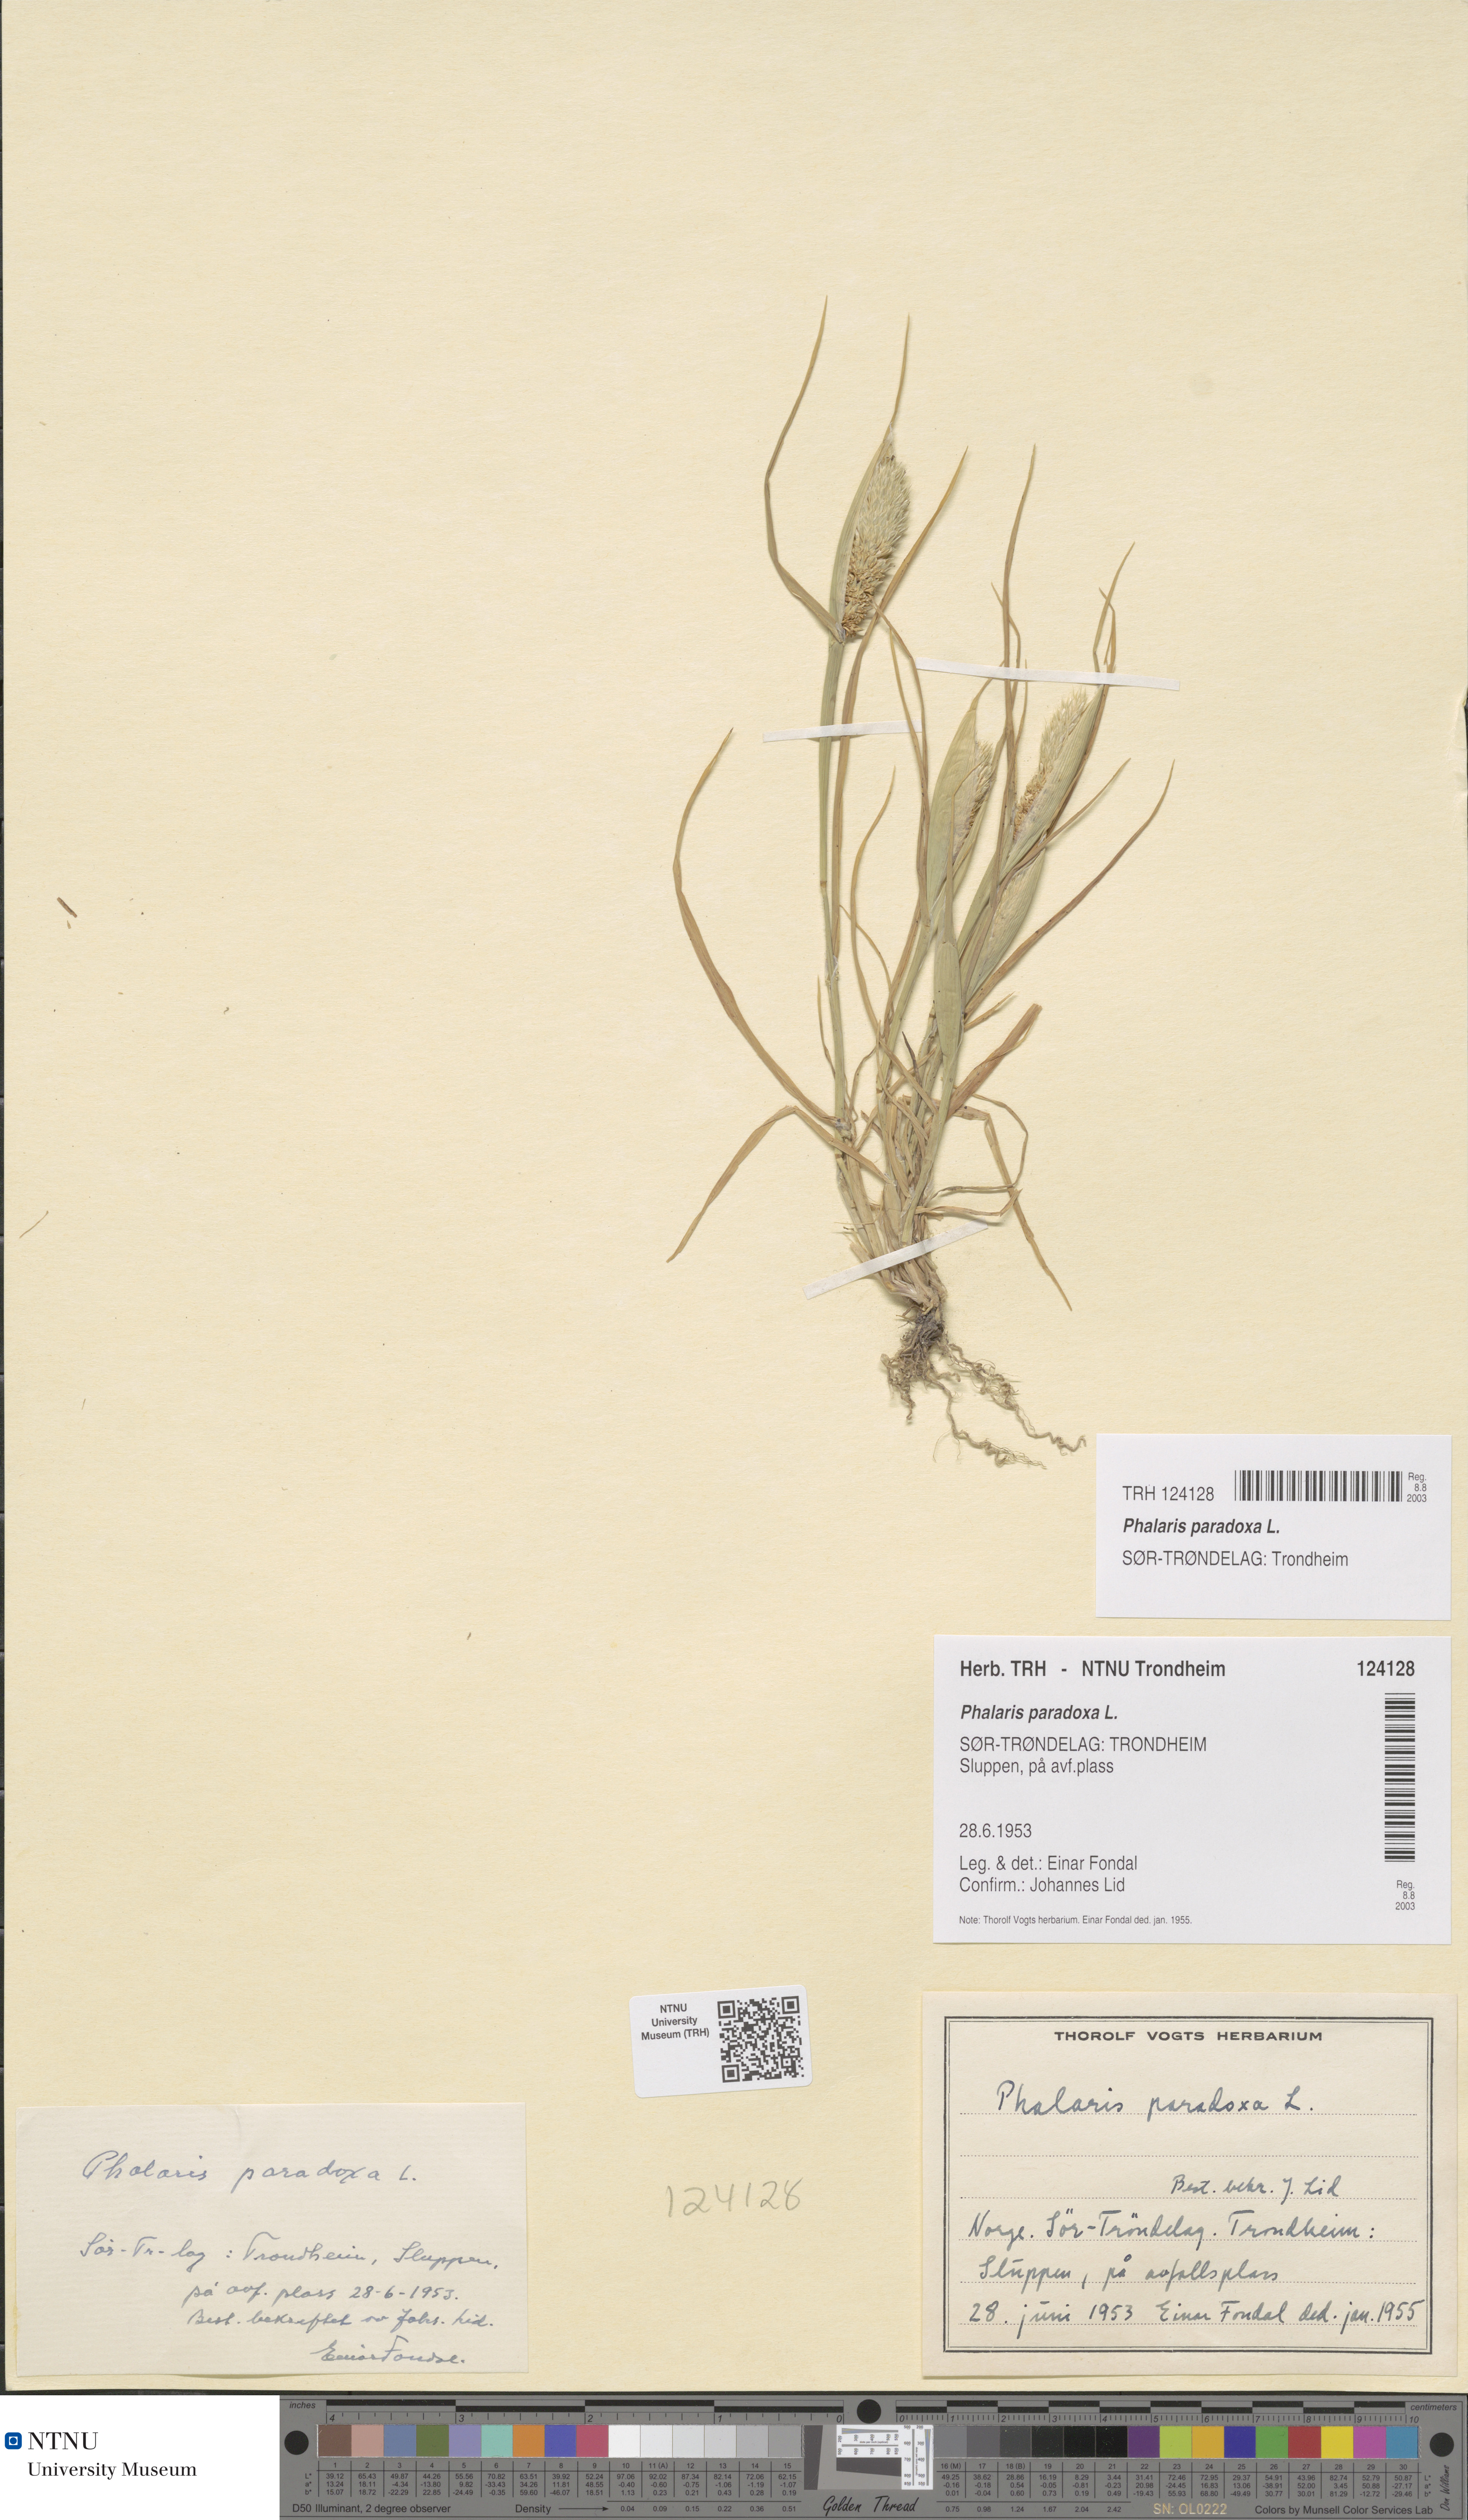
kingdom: Plantae
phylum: Tracheophyta
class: Liliopsida
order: Poales
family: Poaceae
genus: Phalaris
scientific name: Phalaris paradoxa
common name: Awned canary-grass
